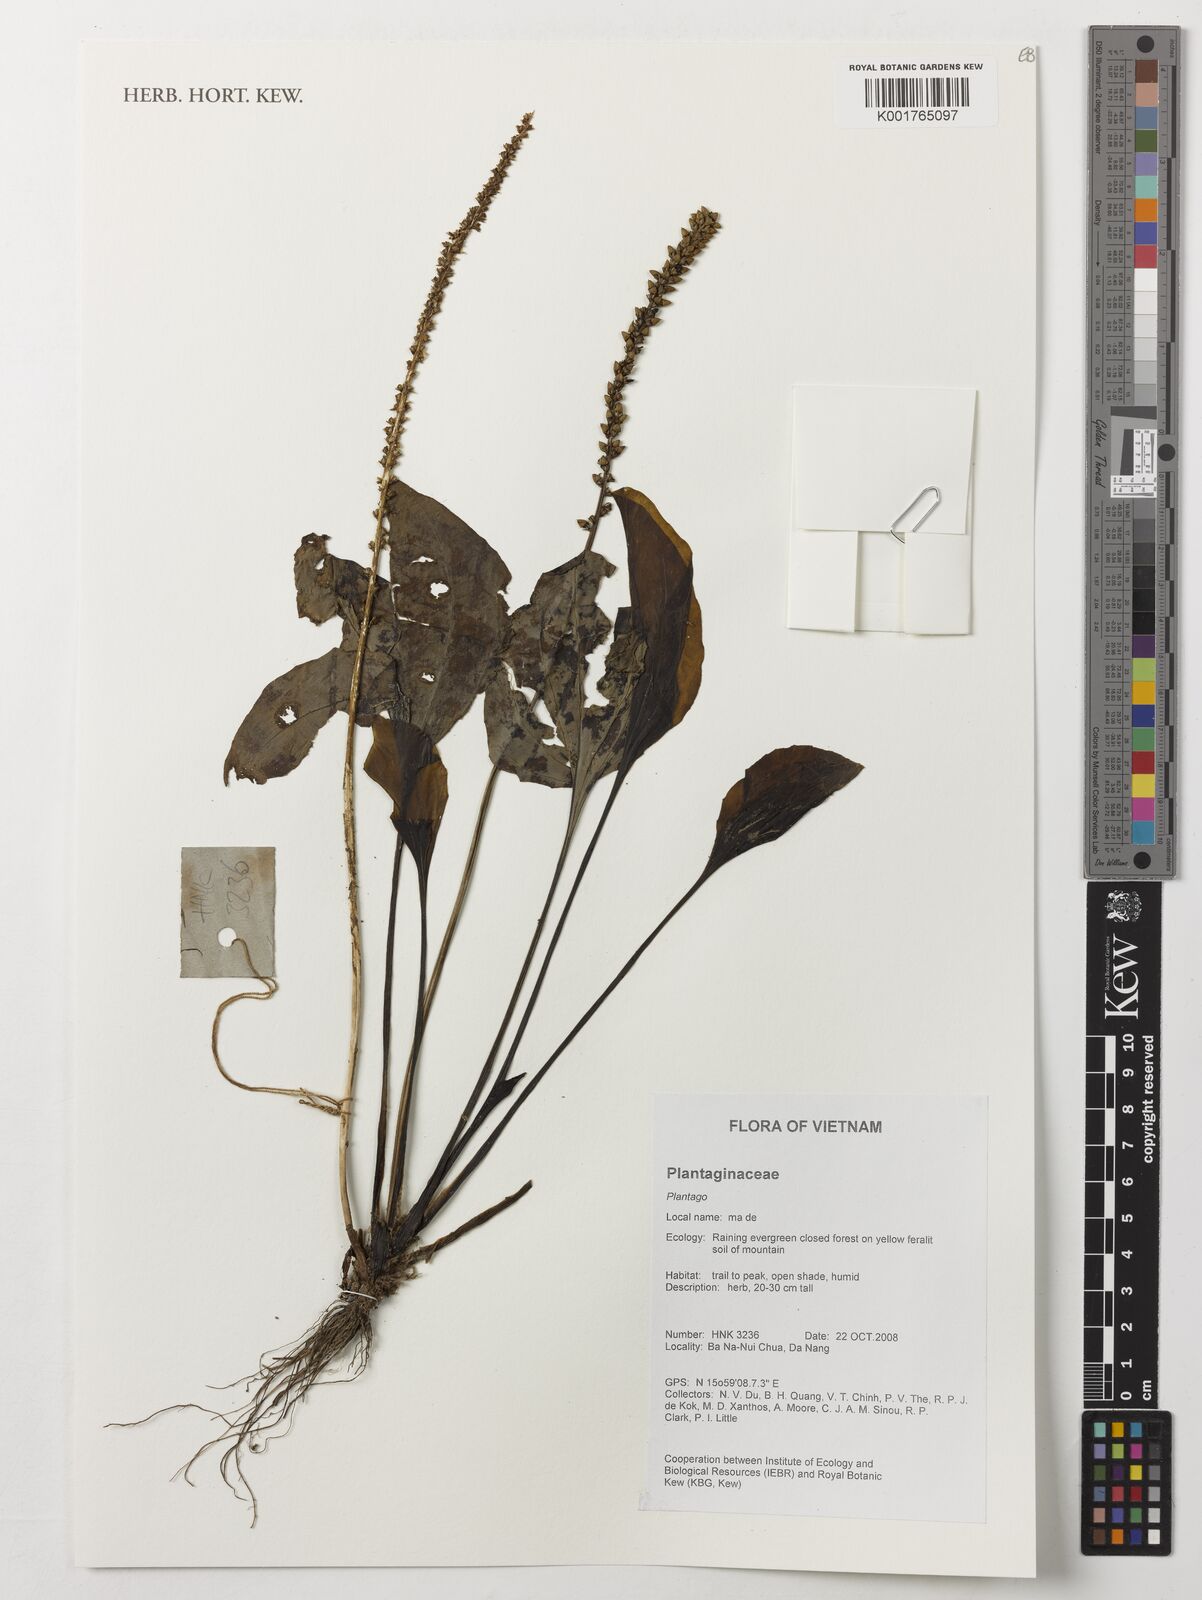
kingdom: Plantae
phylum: Tracheophyta
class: Magnoliopsida
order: Lamiales
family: Plantaginaceae
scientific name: Plantaginaceae
